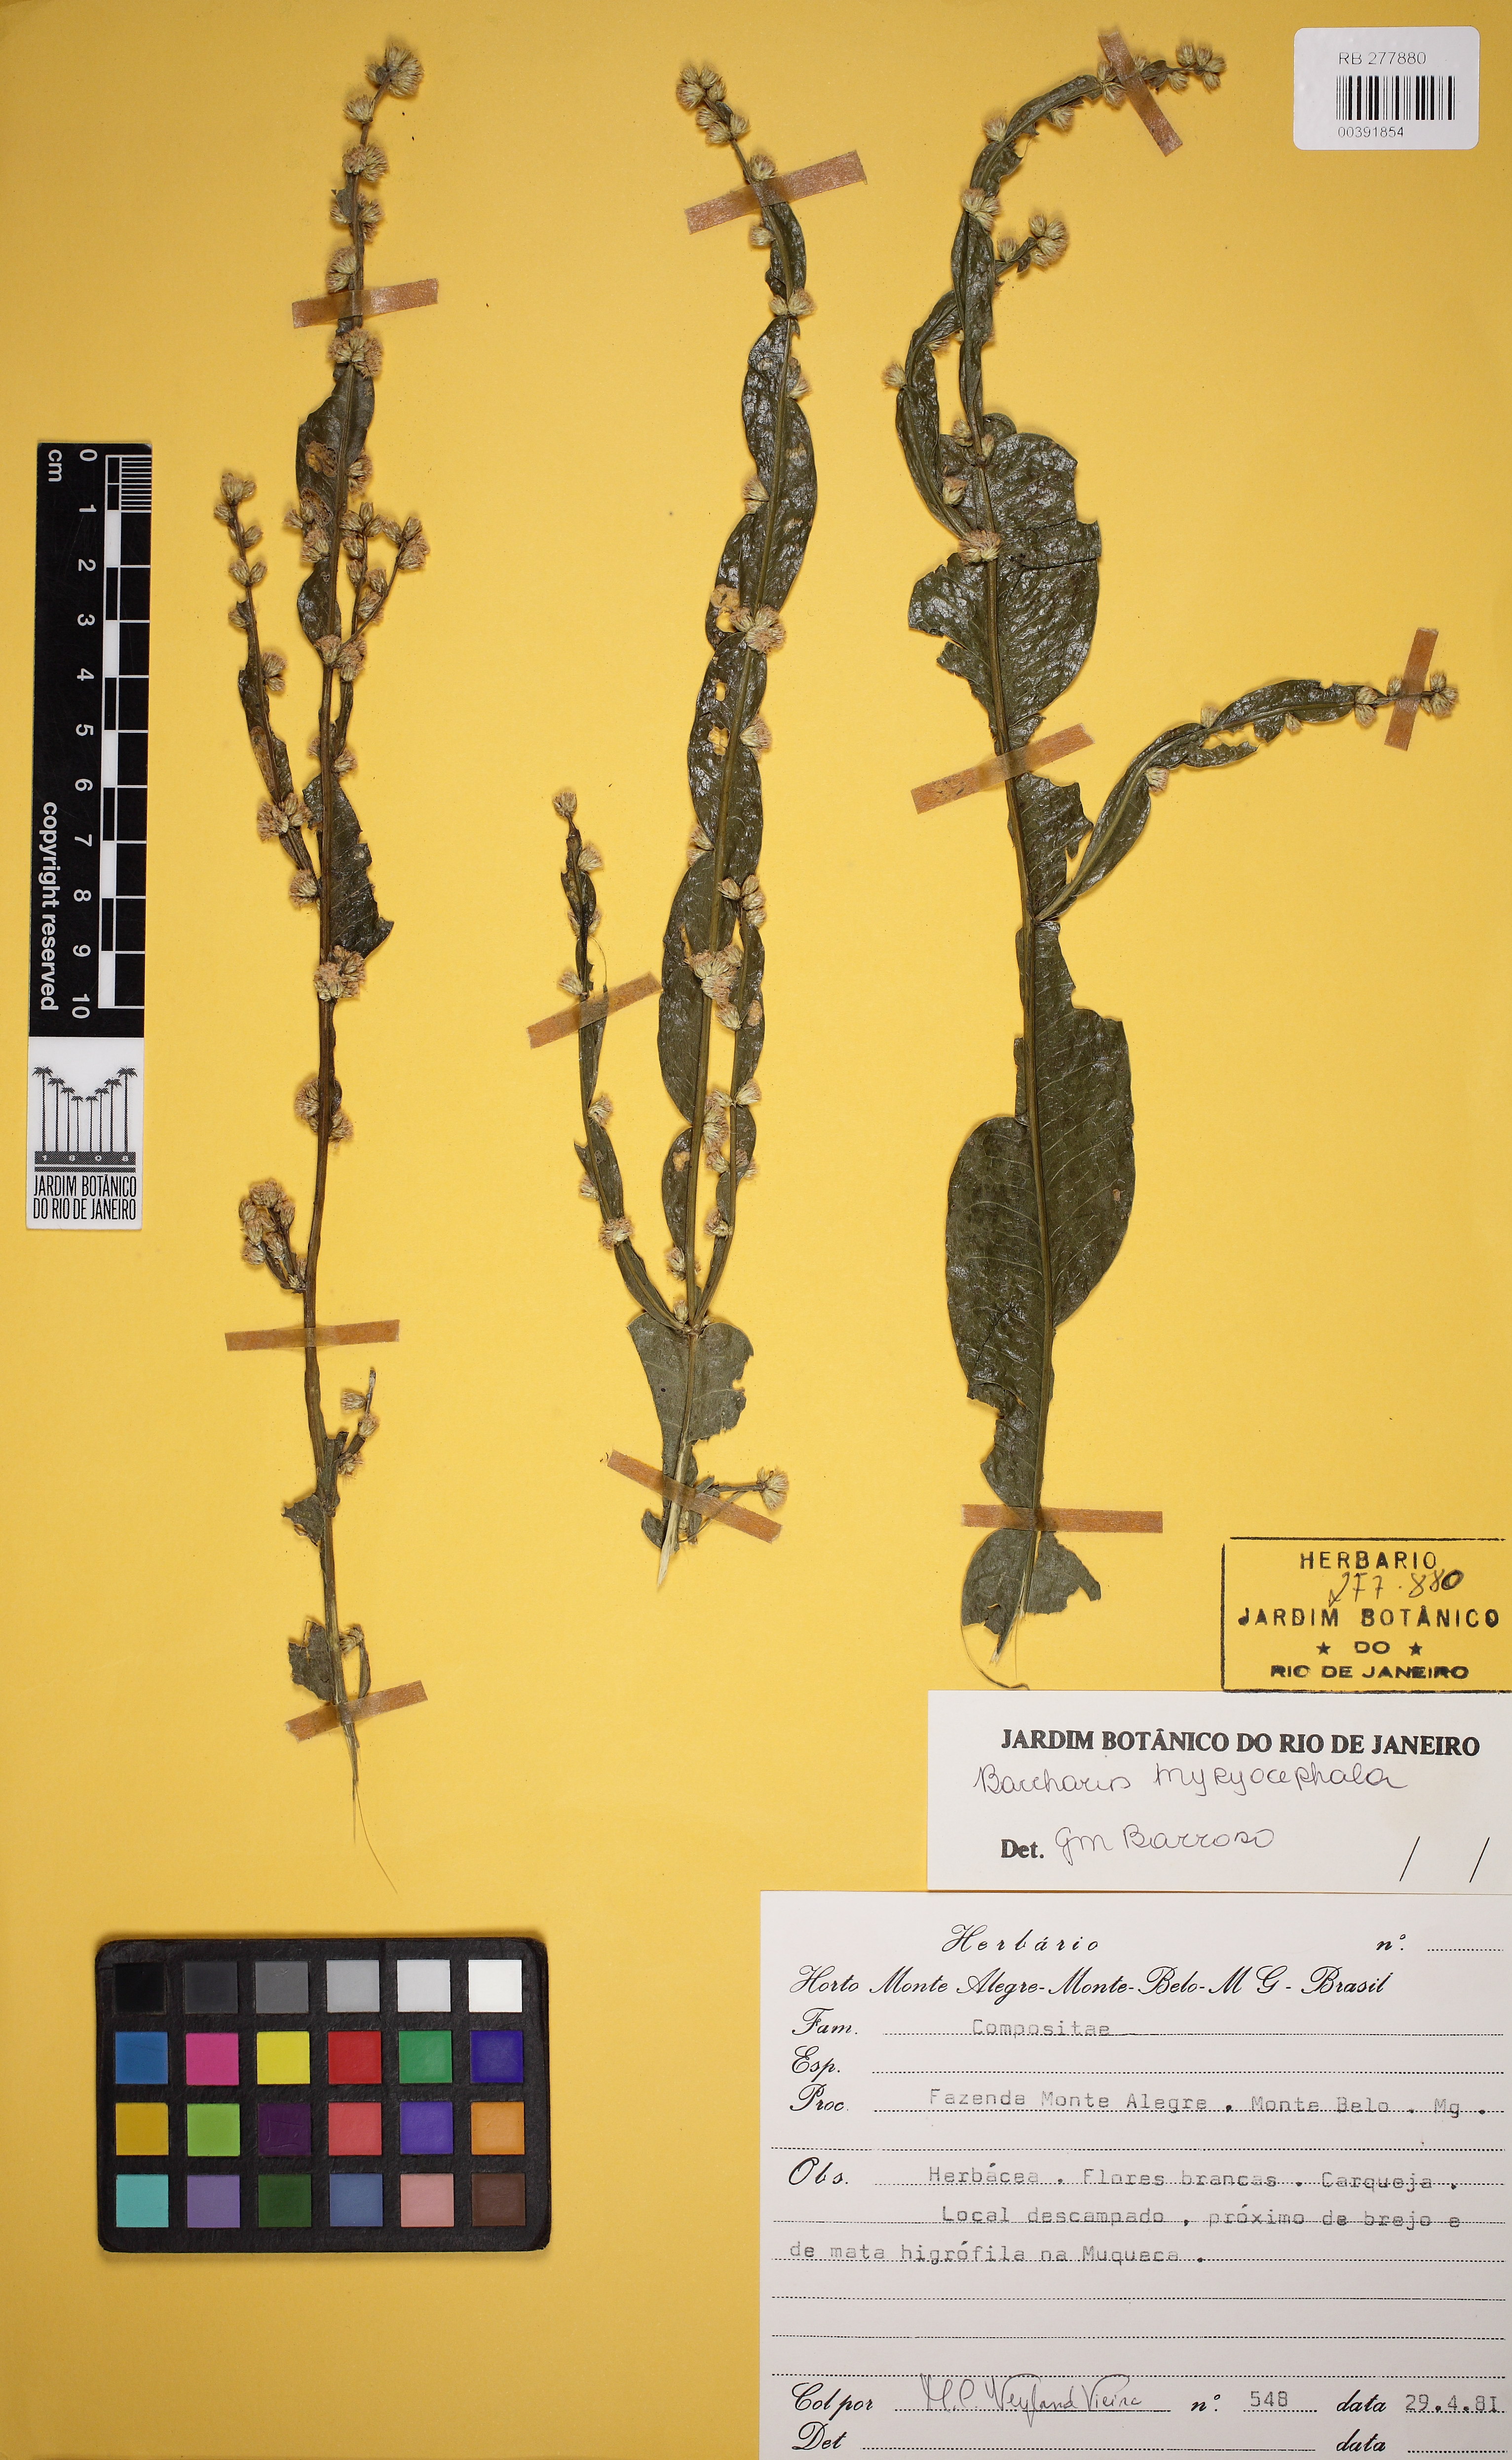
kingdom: Plantae
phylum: Tracheophyta
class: Magnoliopsida
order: Asterales
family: Asteraceae
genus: Baccharis
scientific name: Baccharis microcephala
